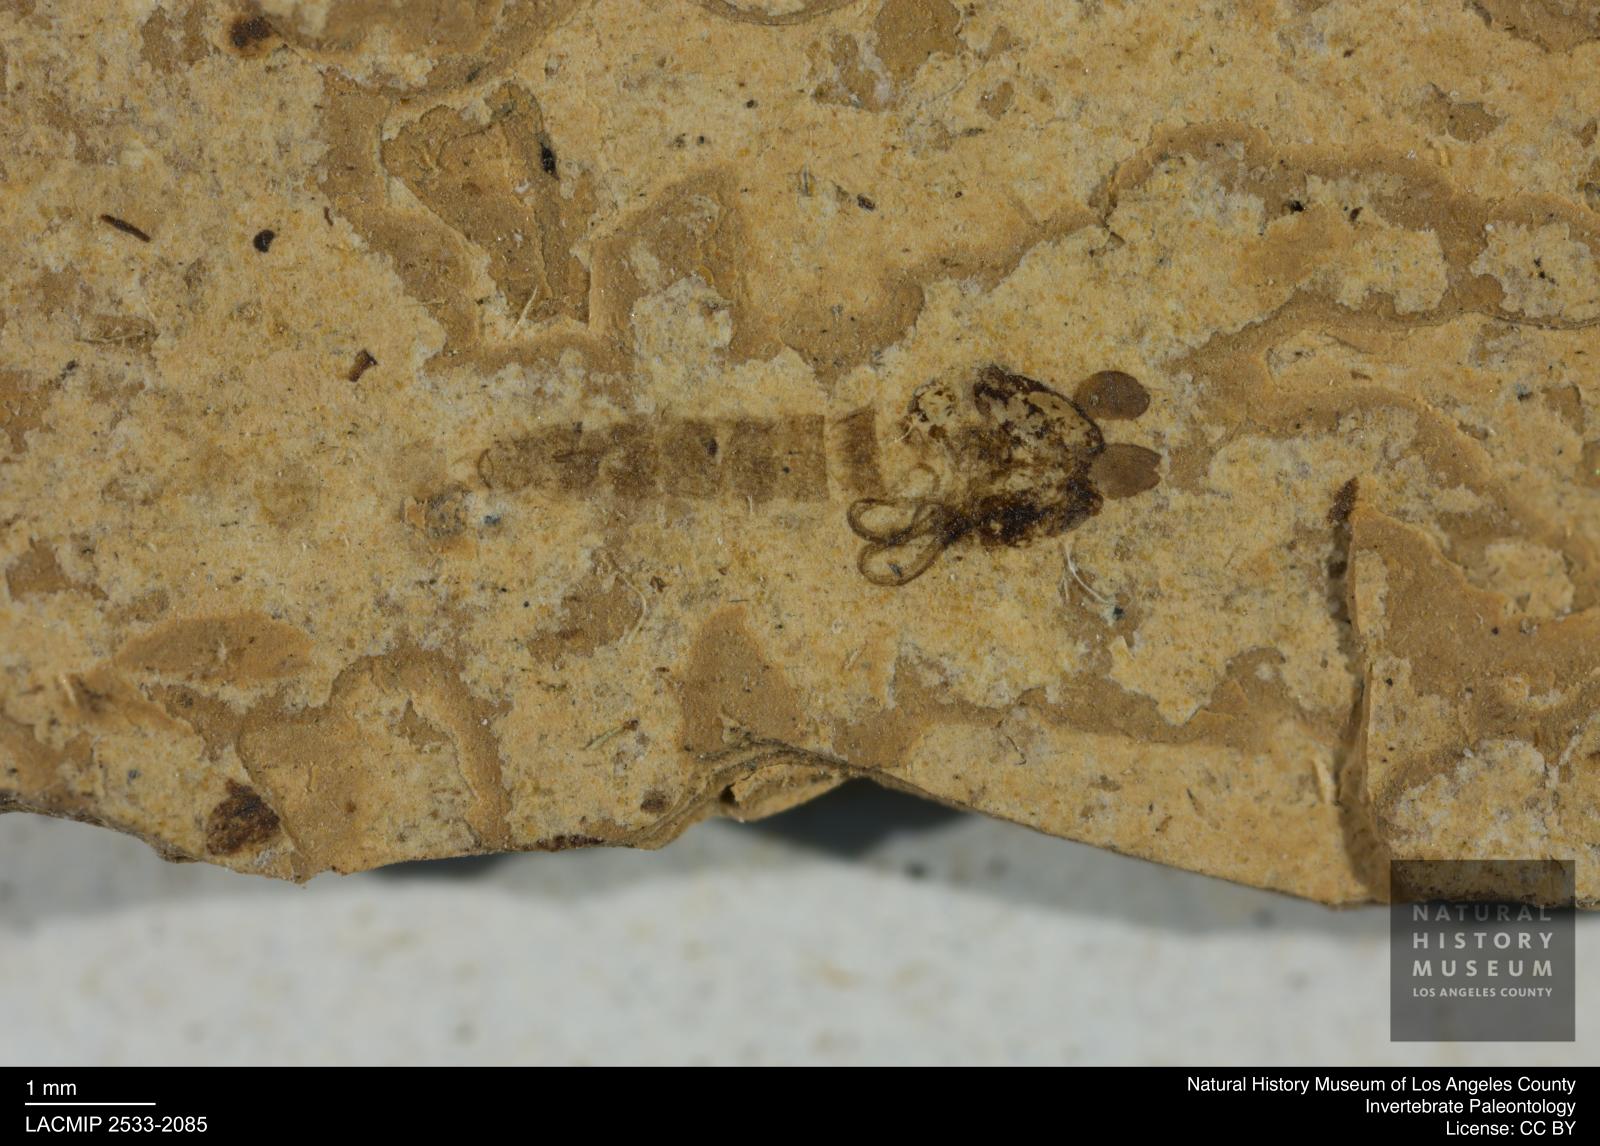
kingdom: Animalia
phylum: Arthropoda
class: Insecta
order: Diptera
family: Chironomidae
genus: Pelopiina
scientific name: Pelopiina
